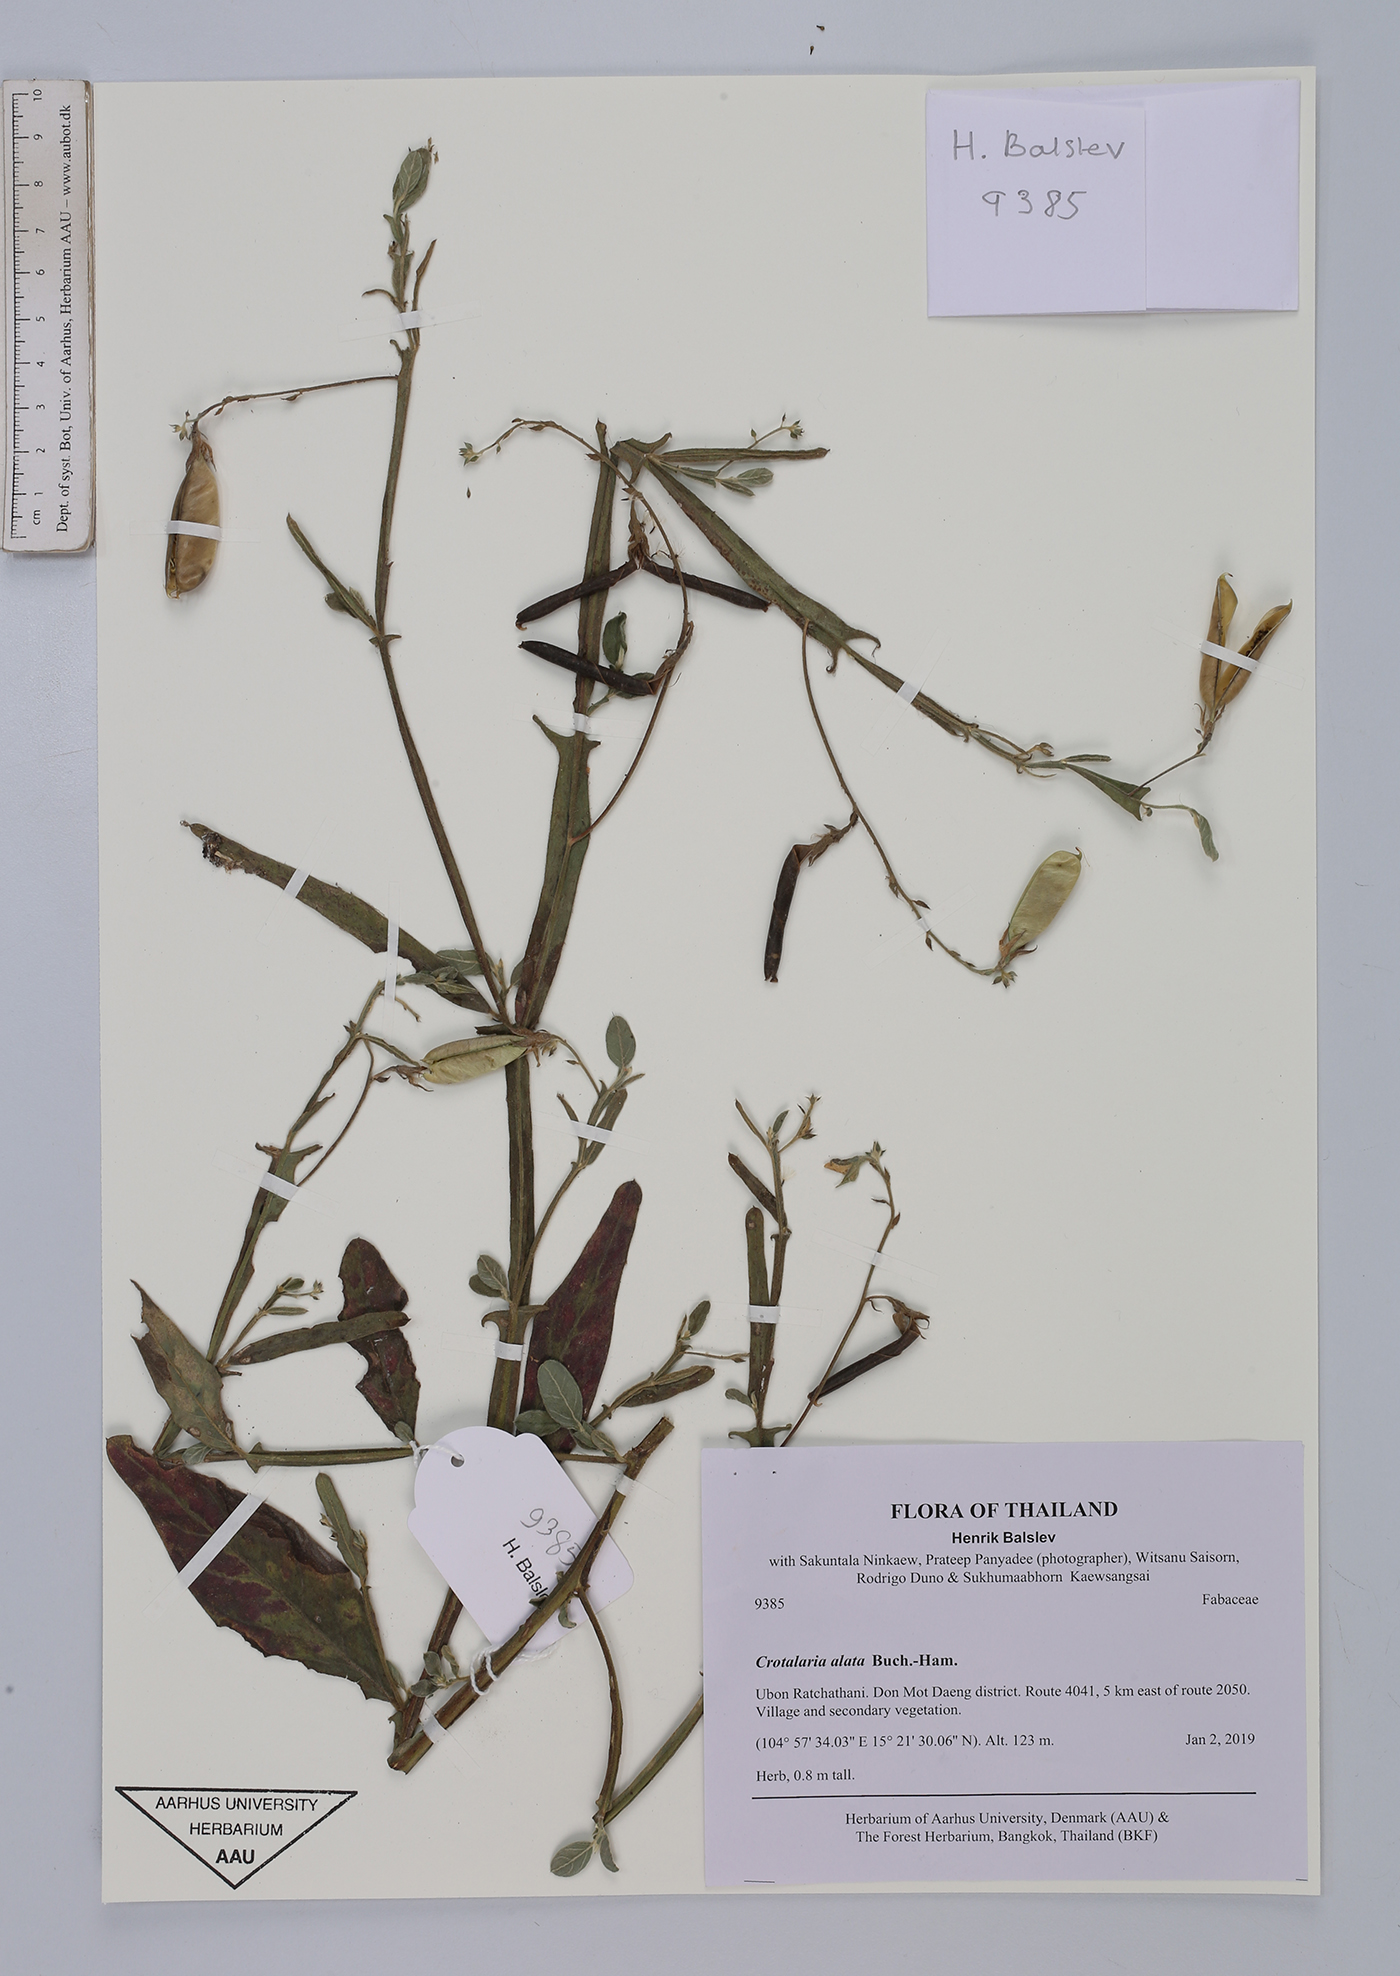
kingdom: Plantae
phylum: Tracheophyta
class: Magnoliopsida
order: Fabales
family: Fabaceae
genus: Crotalaria
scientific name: Crotalaria alata
